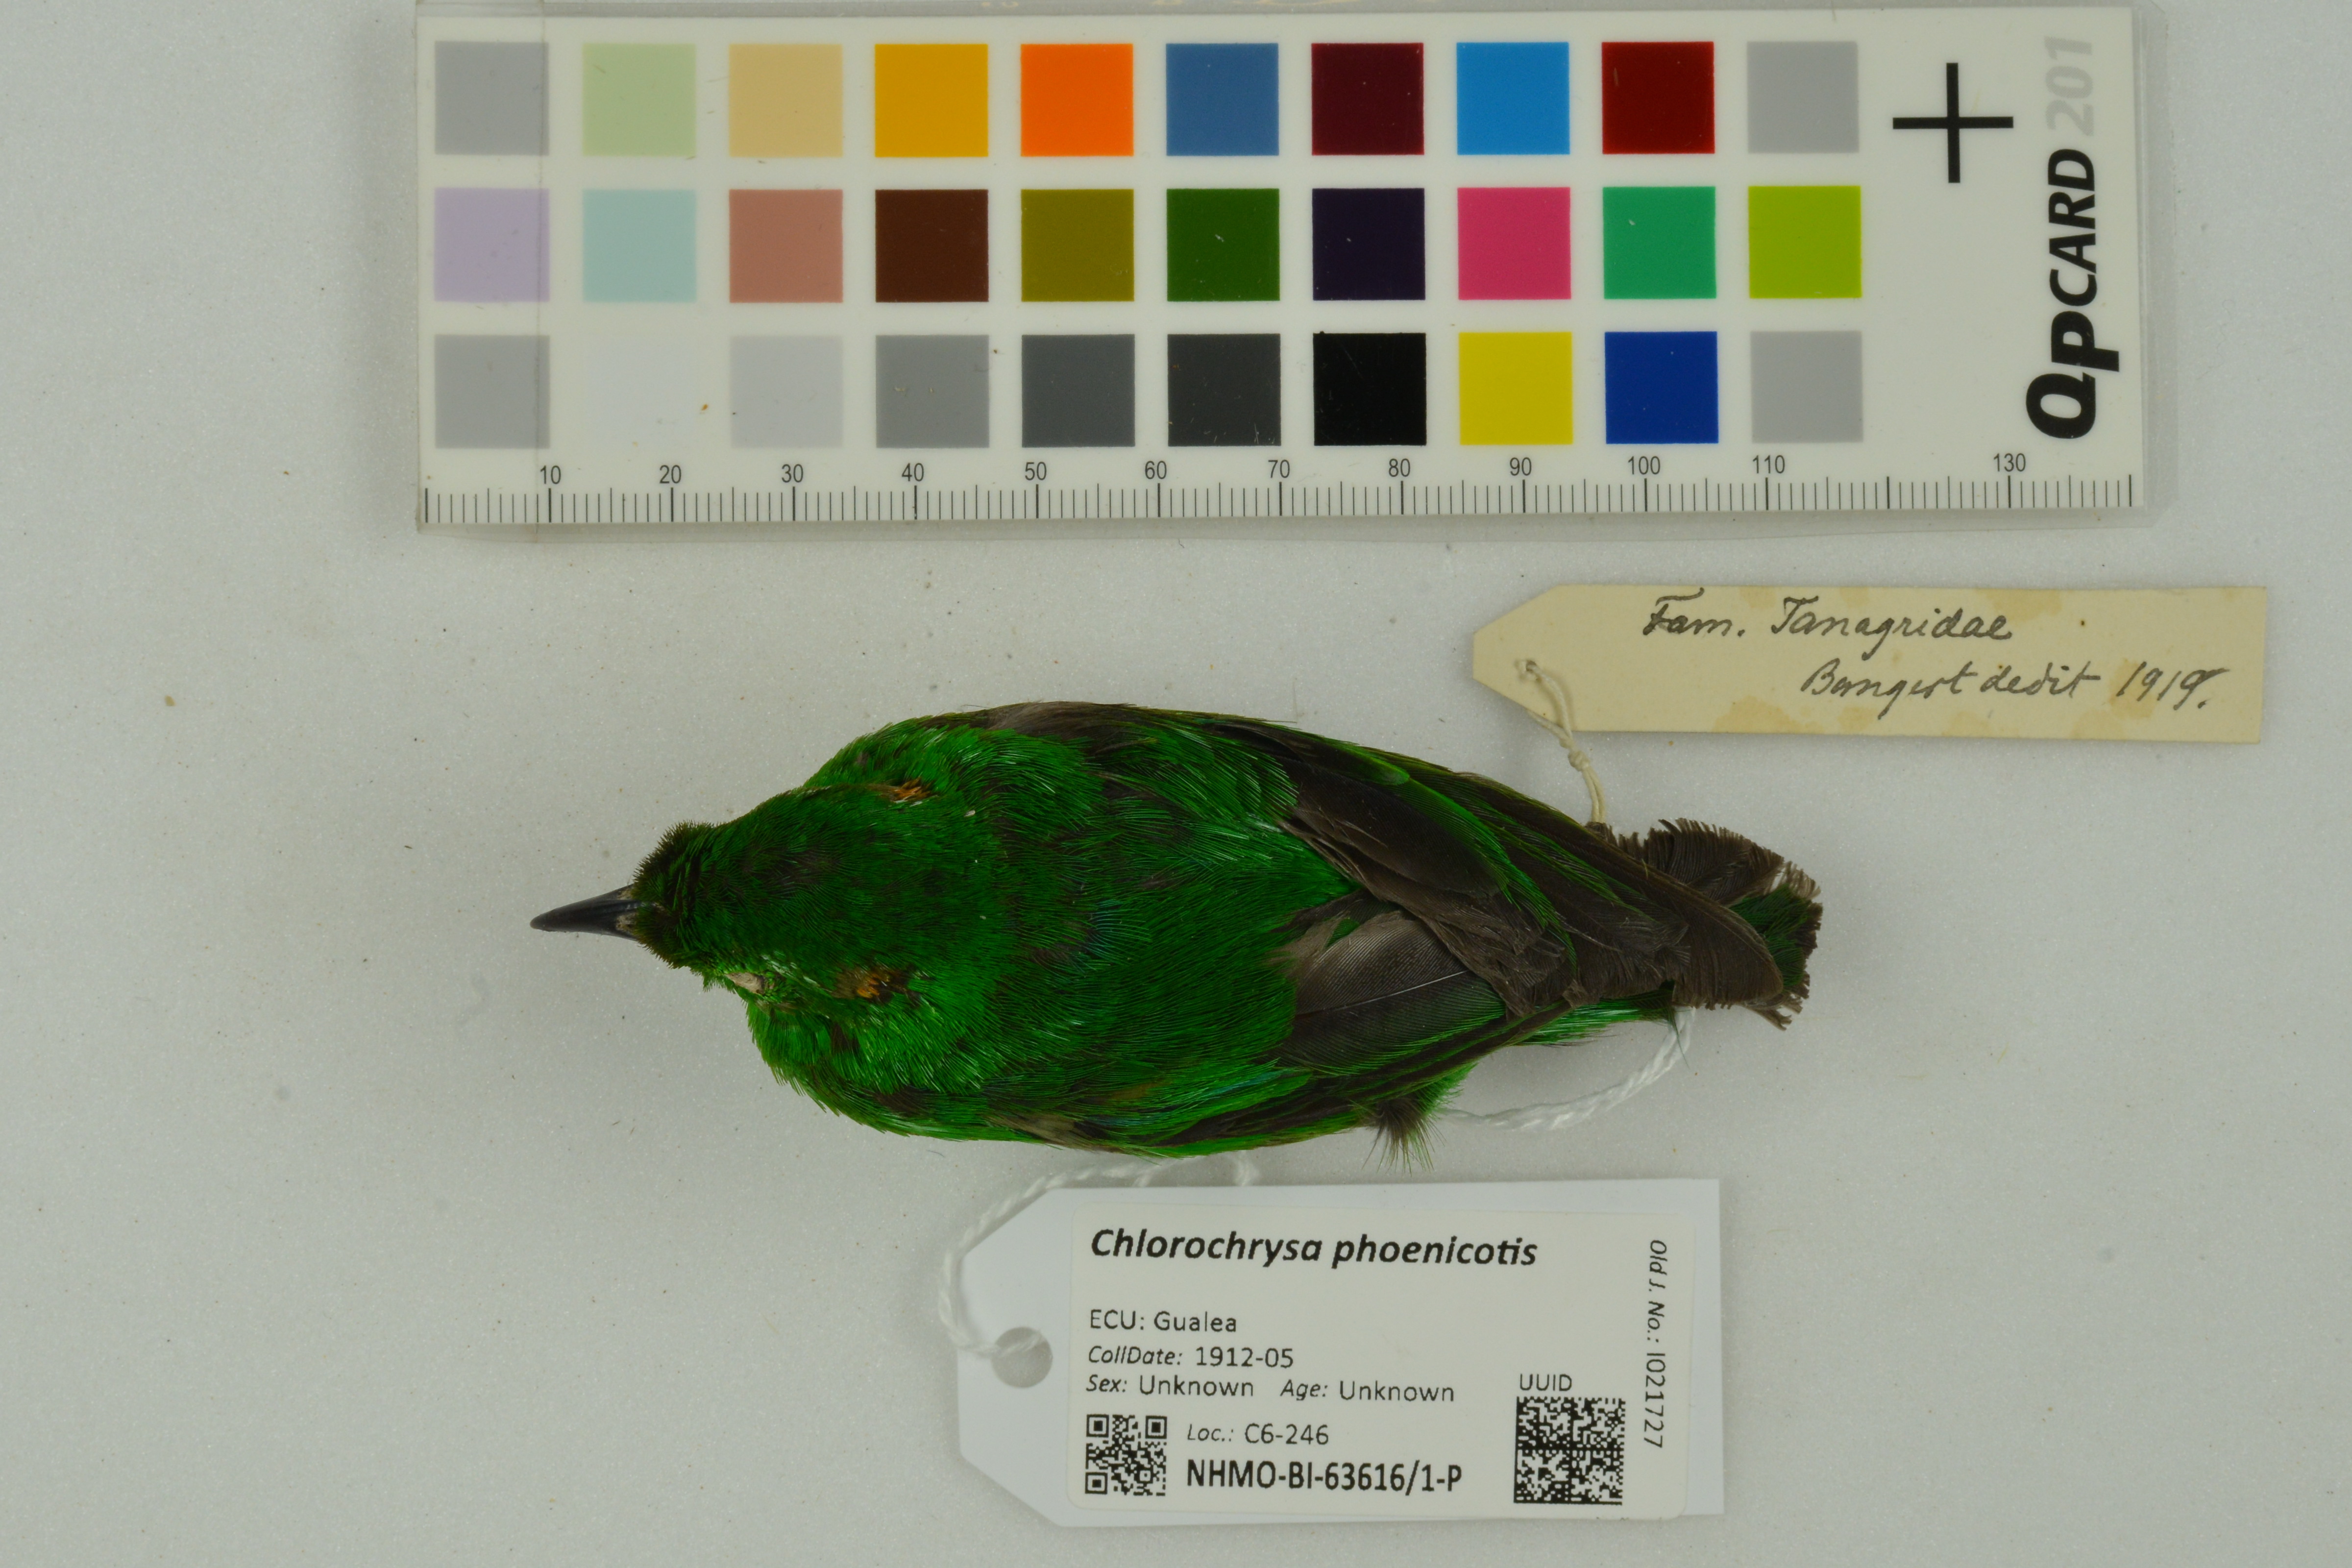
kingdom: Animalia
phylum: Chordata
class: Aves
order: Passeriformes
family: Thraupidae
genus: Chlorochrysa
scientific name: Chlorochrysa phoenicotis
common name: Glistening-green tanager
